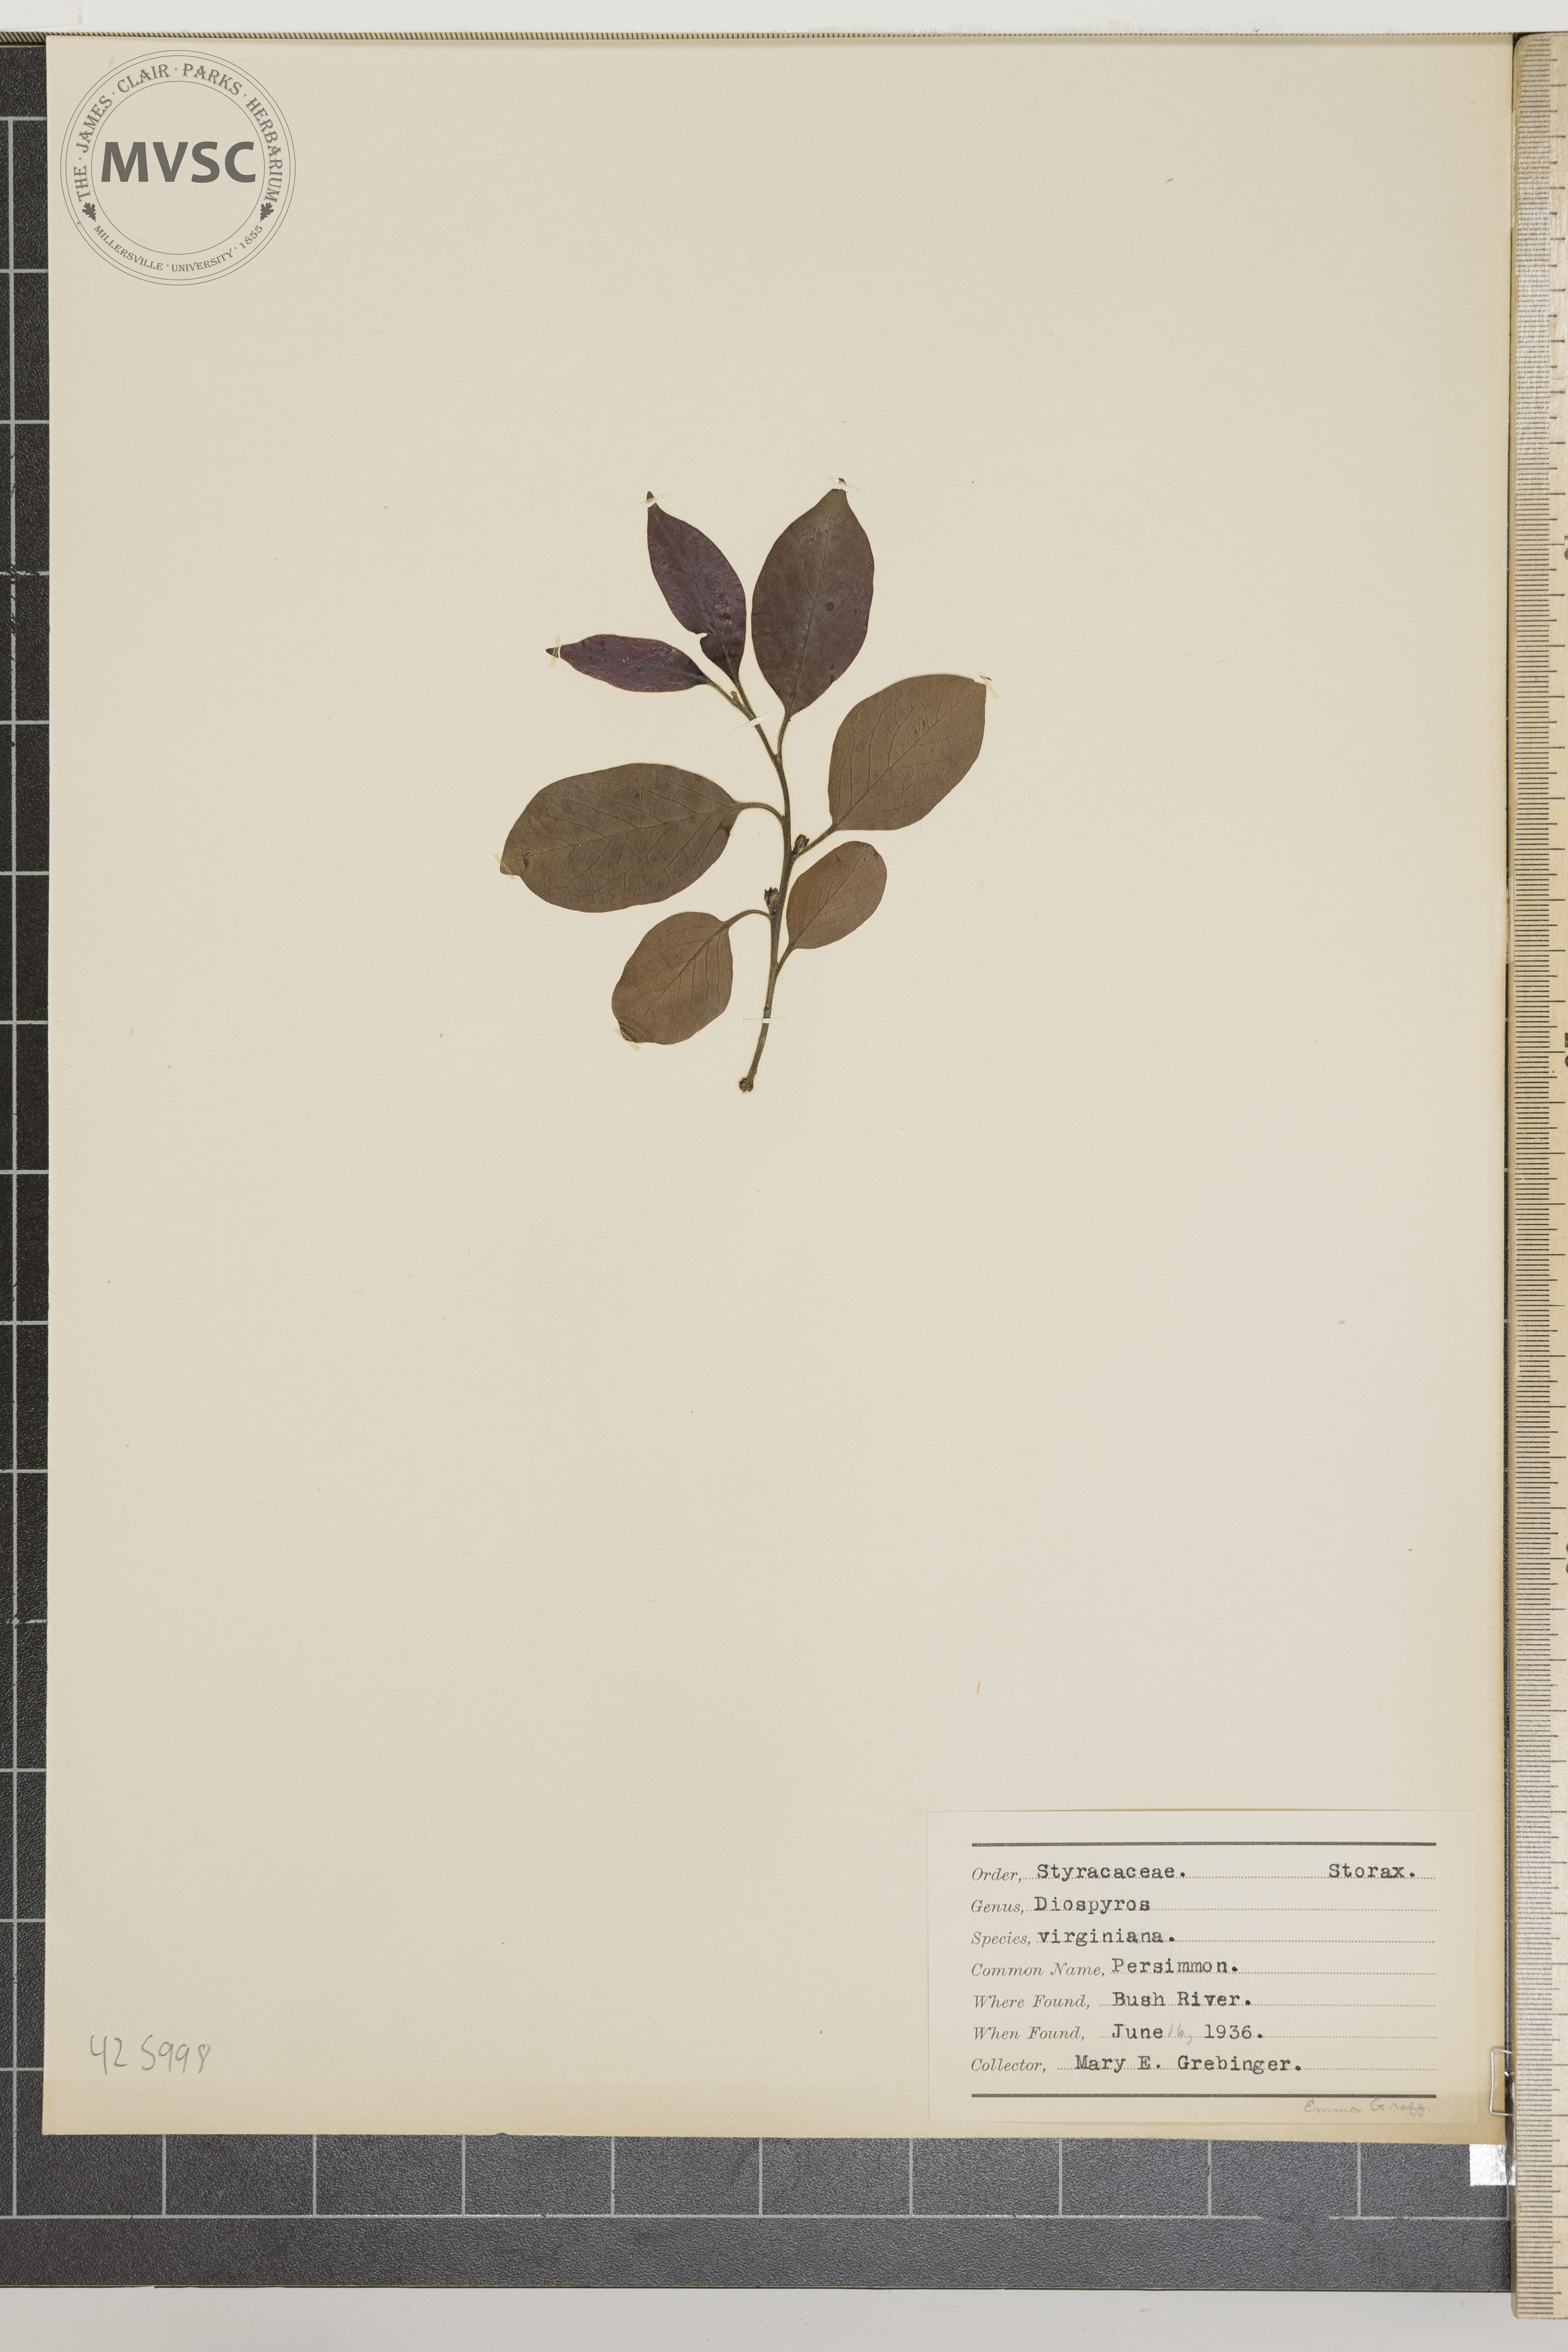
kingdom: Plantae
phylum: Tracheophyta
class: Magnoliopsida
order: Ericales
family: Ebenaceae
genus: Diospyros
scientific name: Diospyros virginiana
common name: Persimmon
